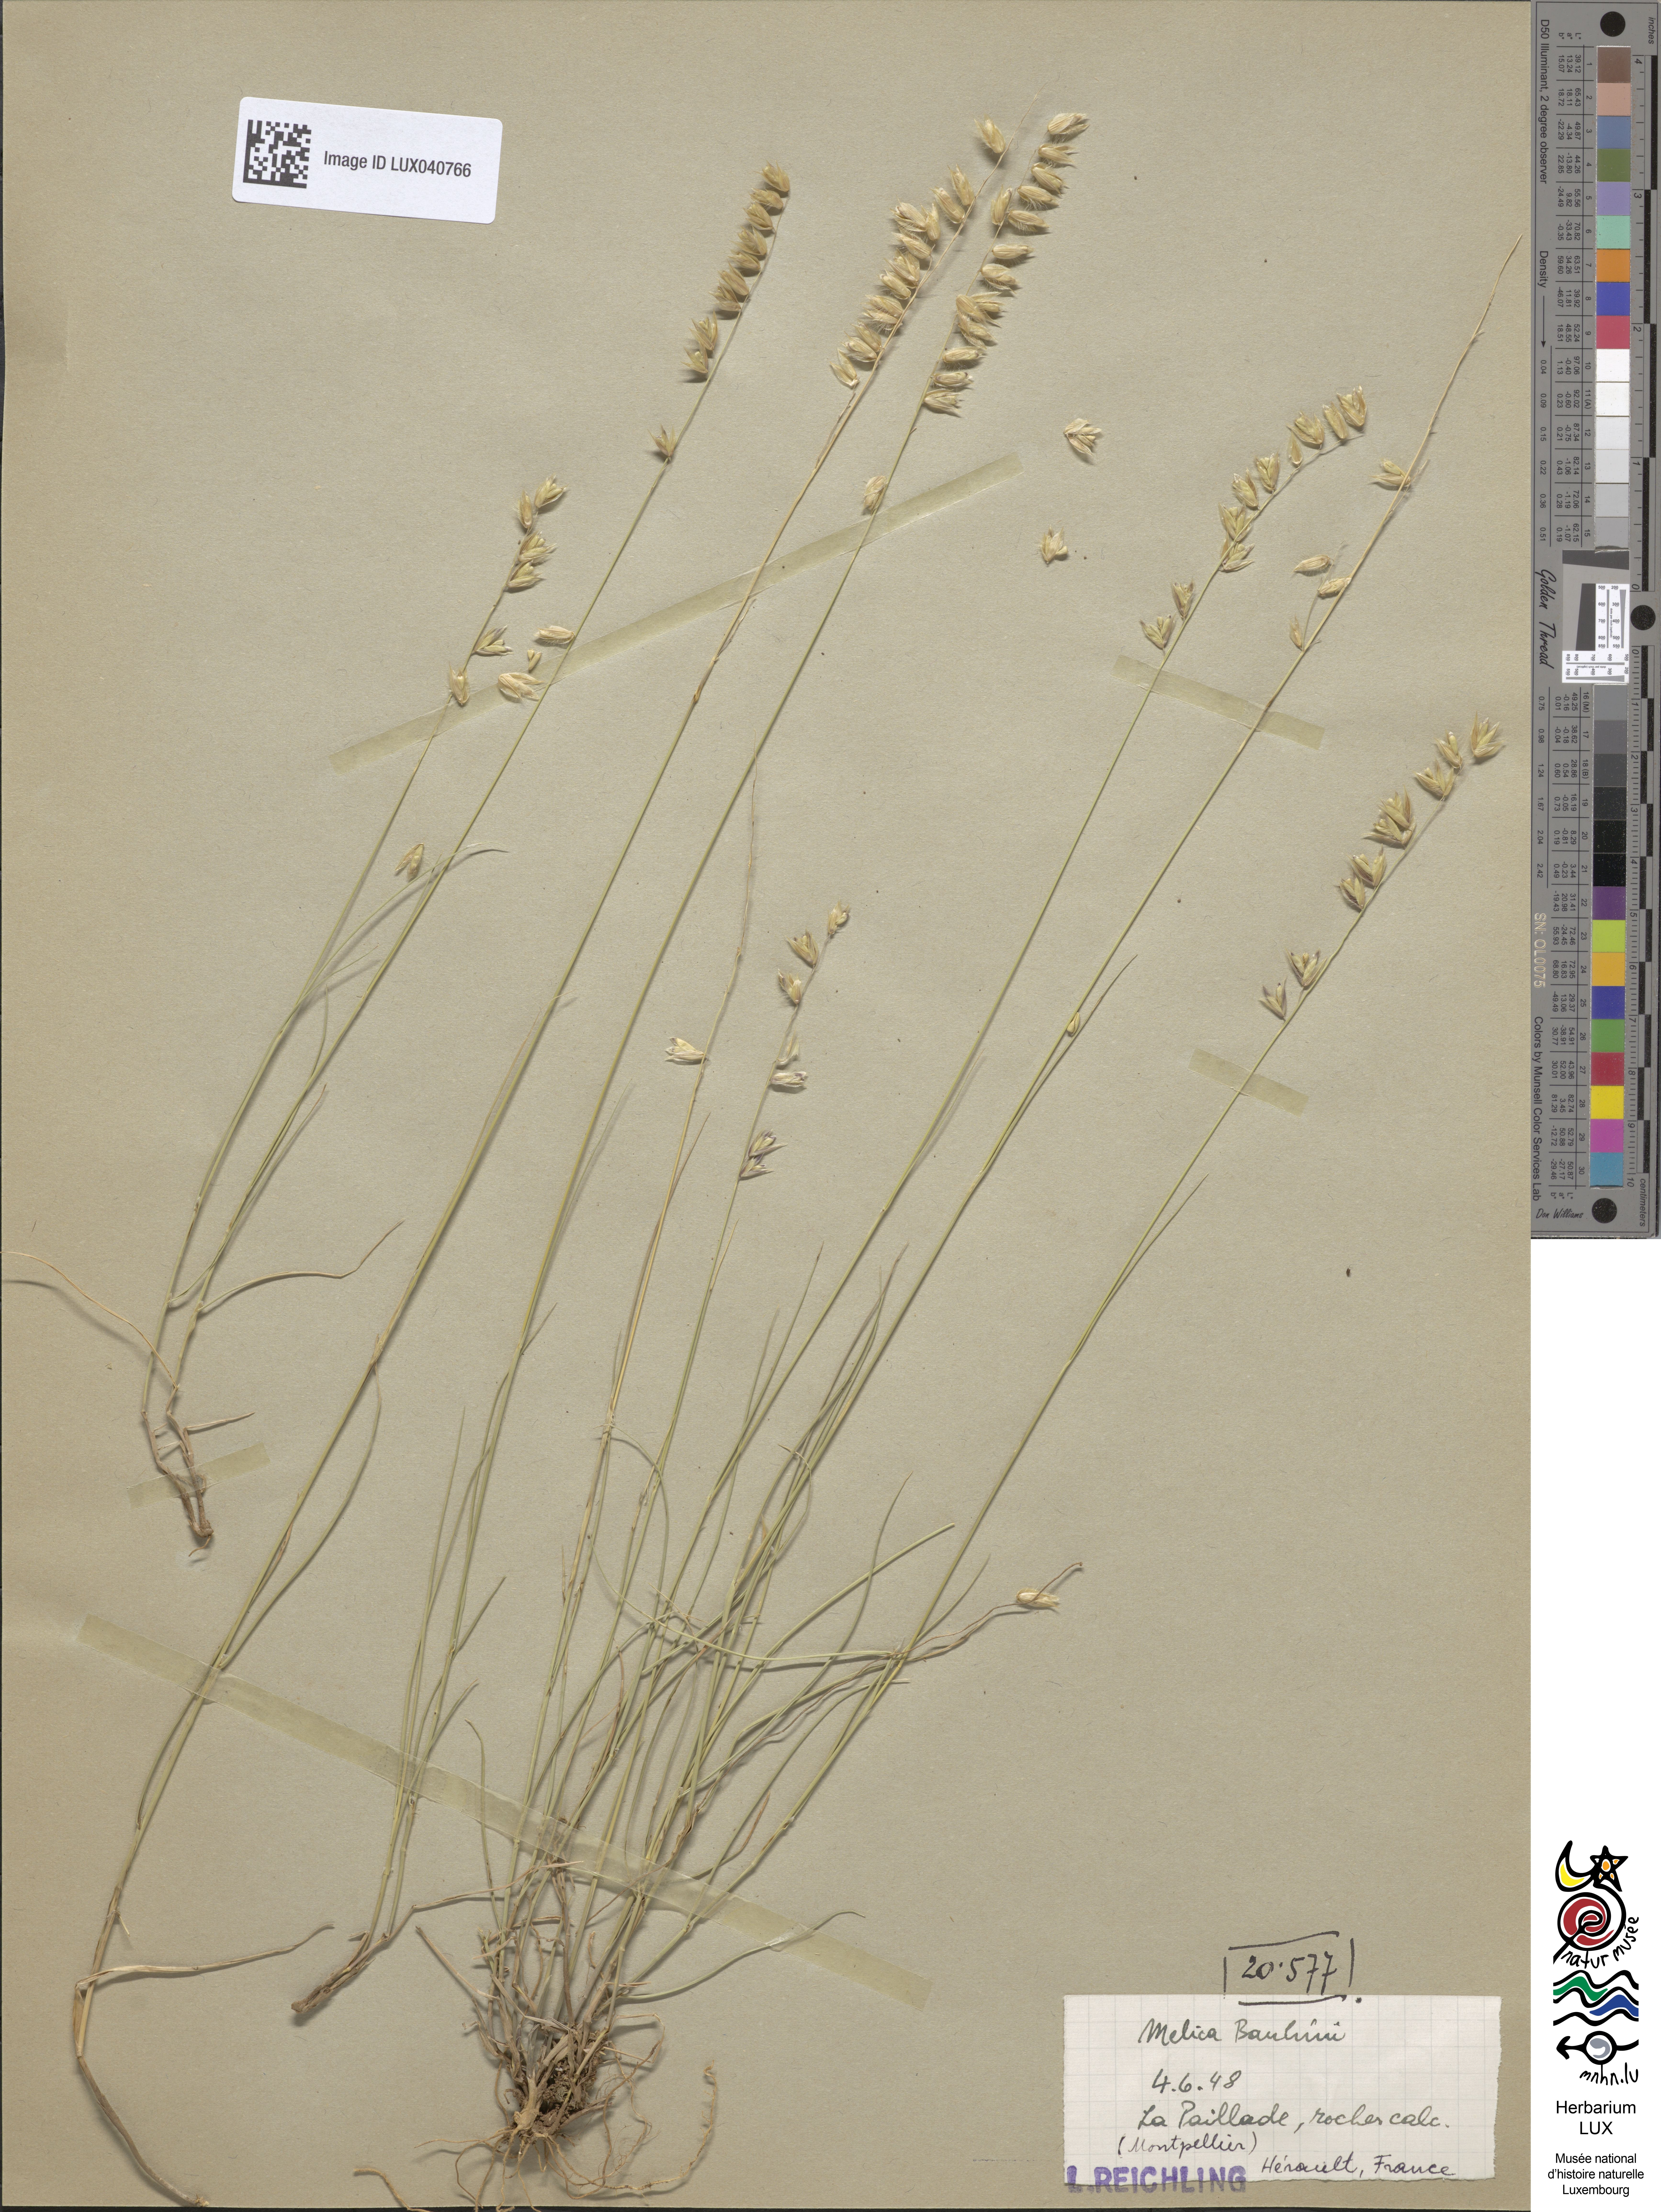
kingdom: Plantae
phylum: Tracheophyta
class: Liliopsida
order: Poales
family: Poaceae
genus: Melica
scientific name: Melica amethystina
